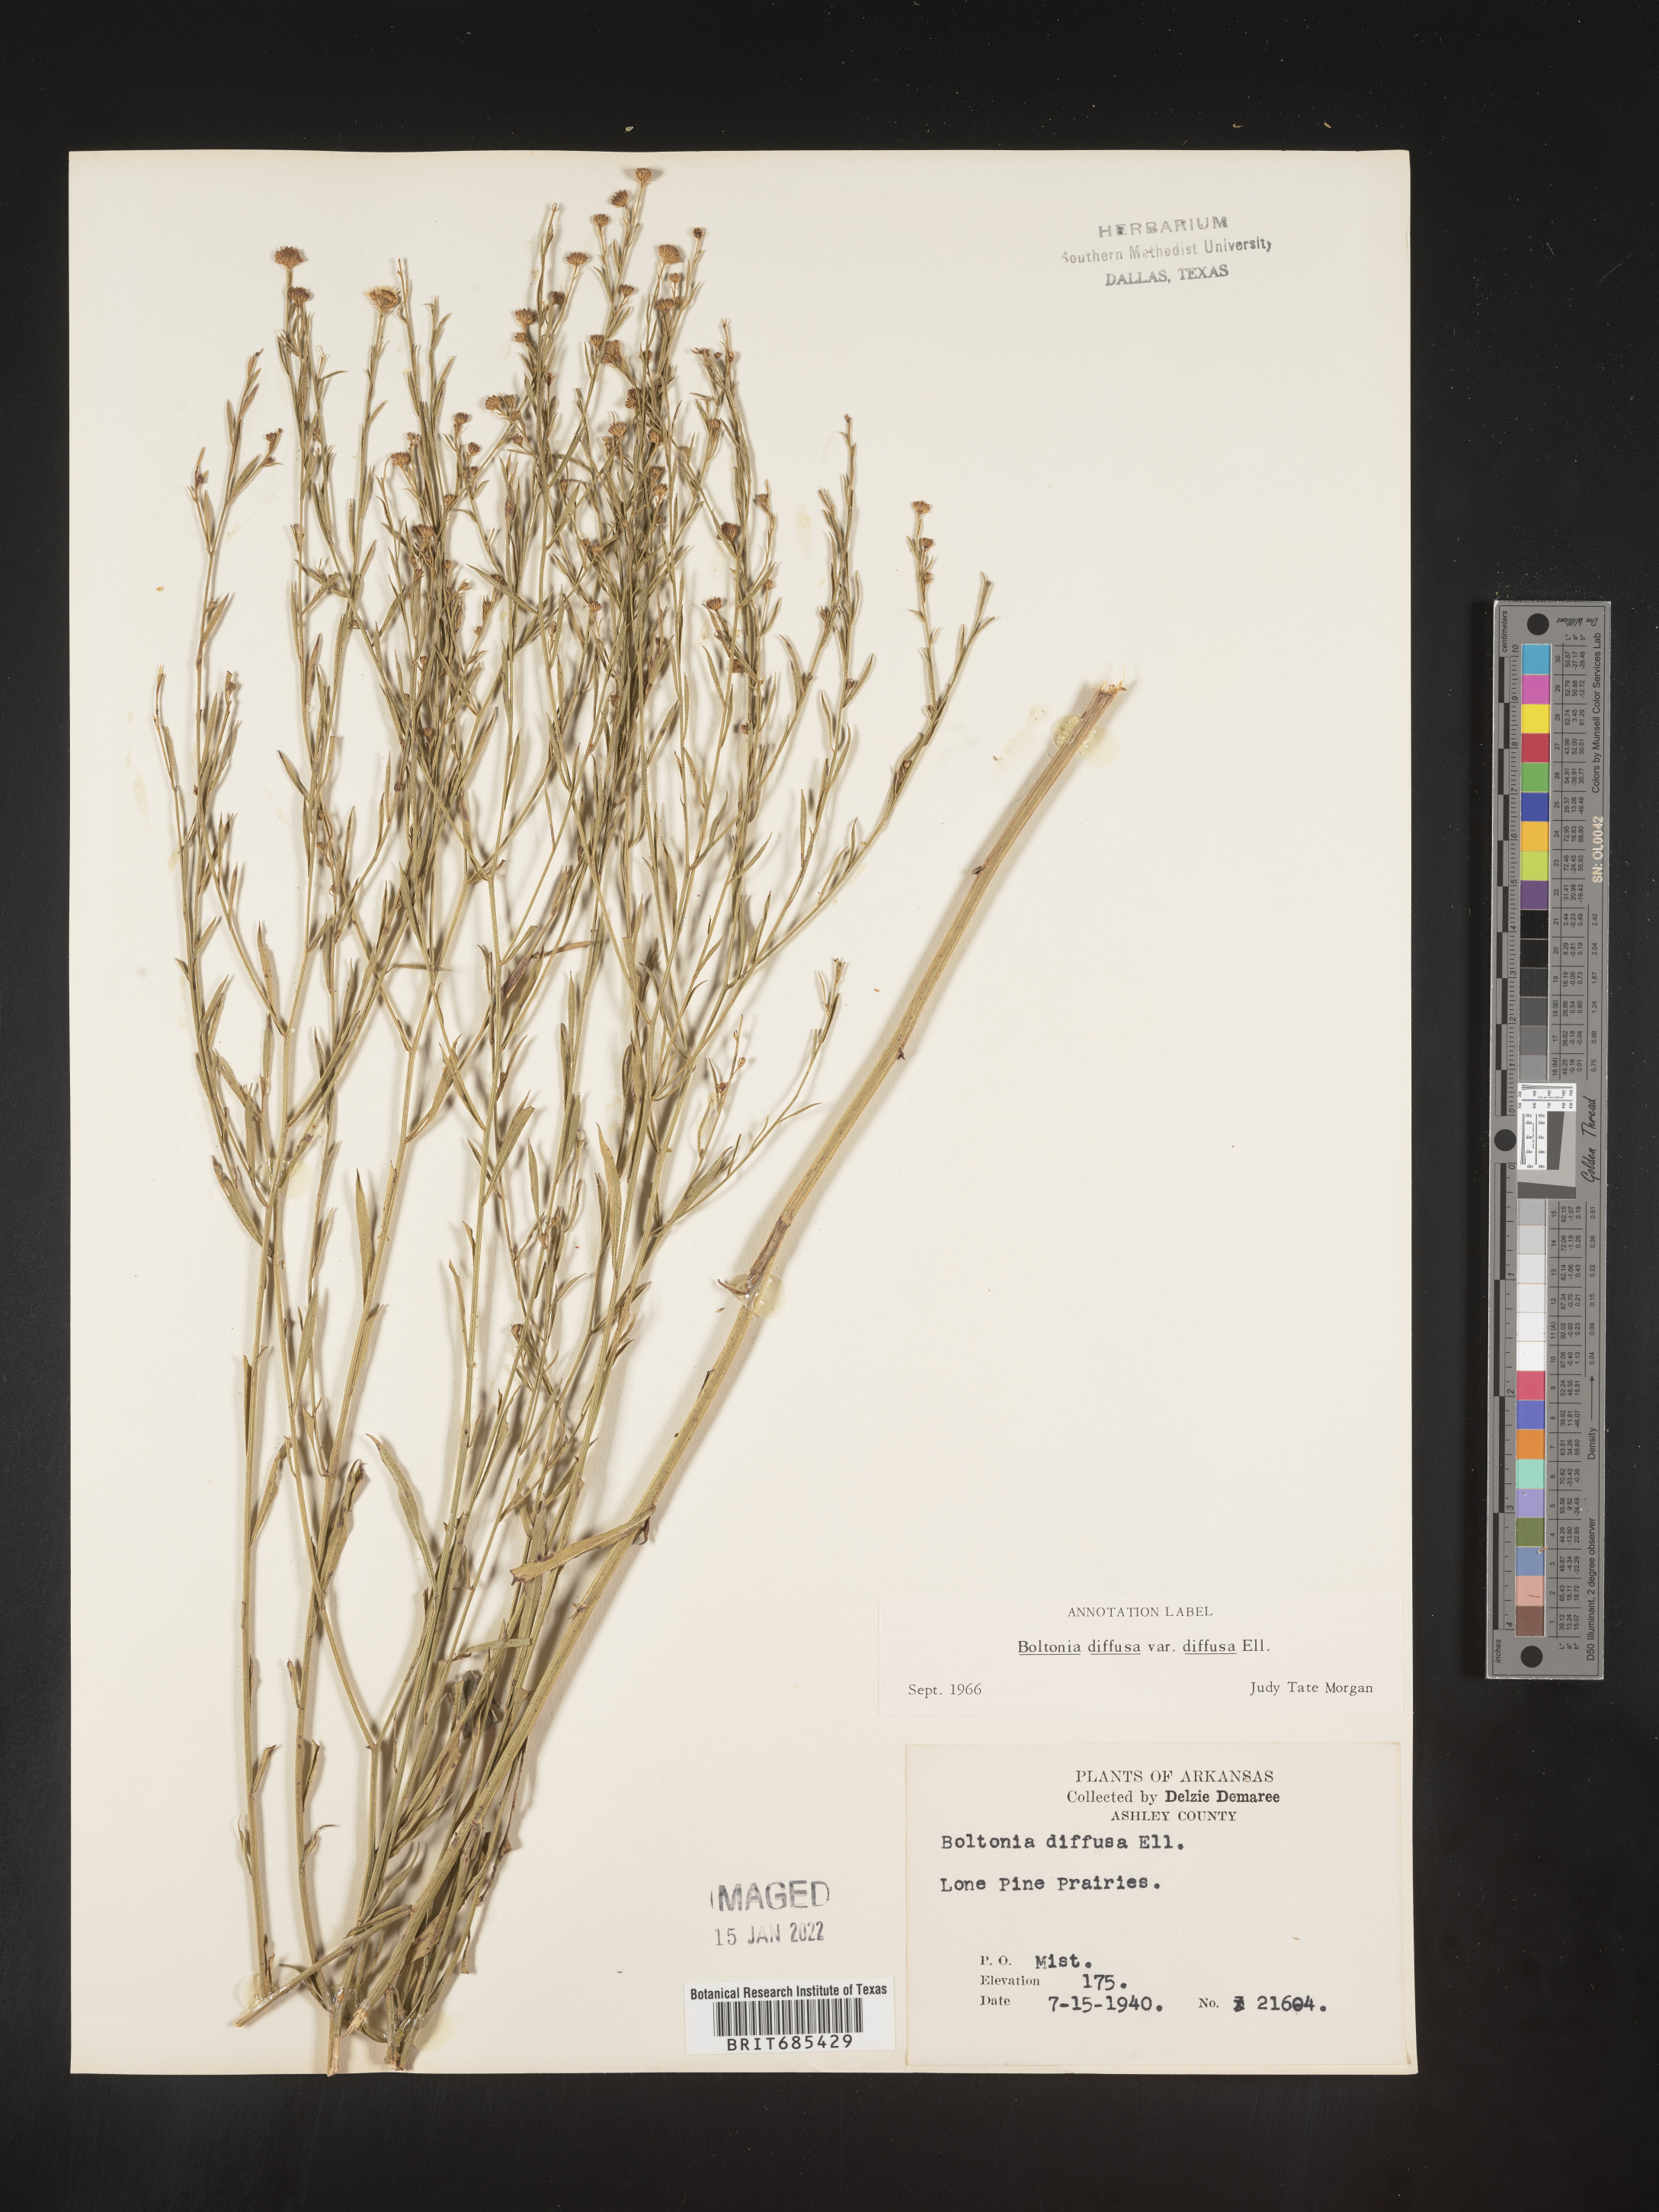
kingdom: Plantae
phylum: Tracheophyta
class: Magnoliopsida
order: Asterales
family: Asteraceae
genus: Boltonia
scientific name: Boltonia diffusa
